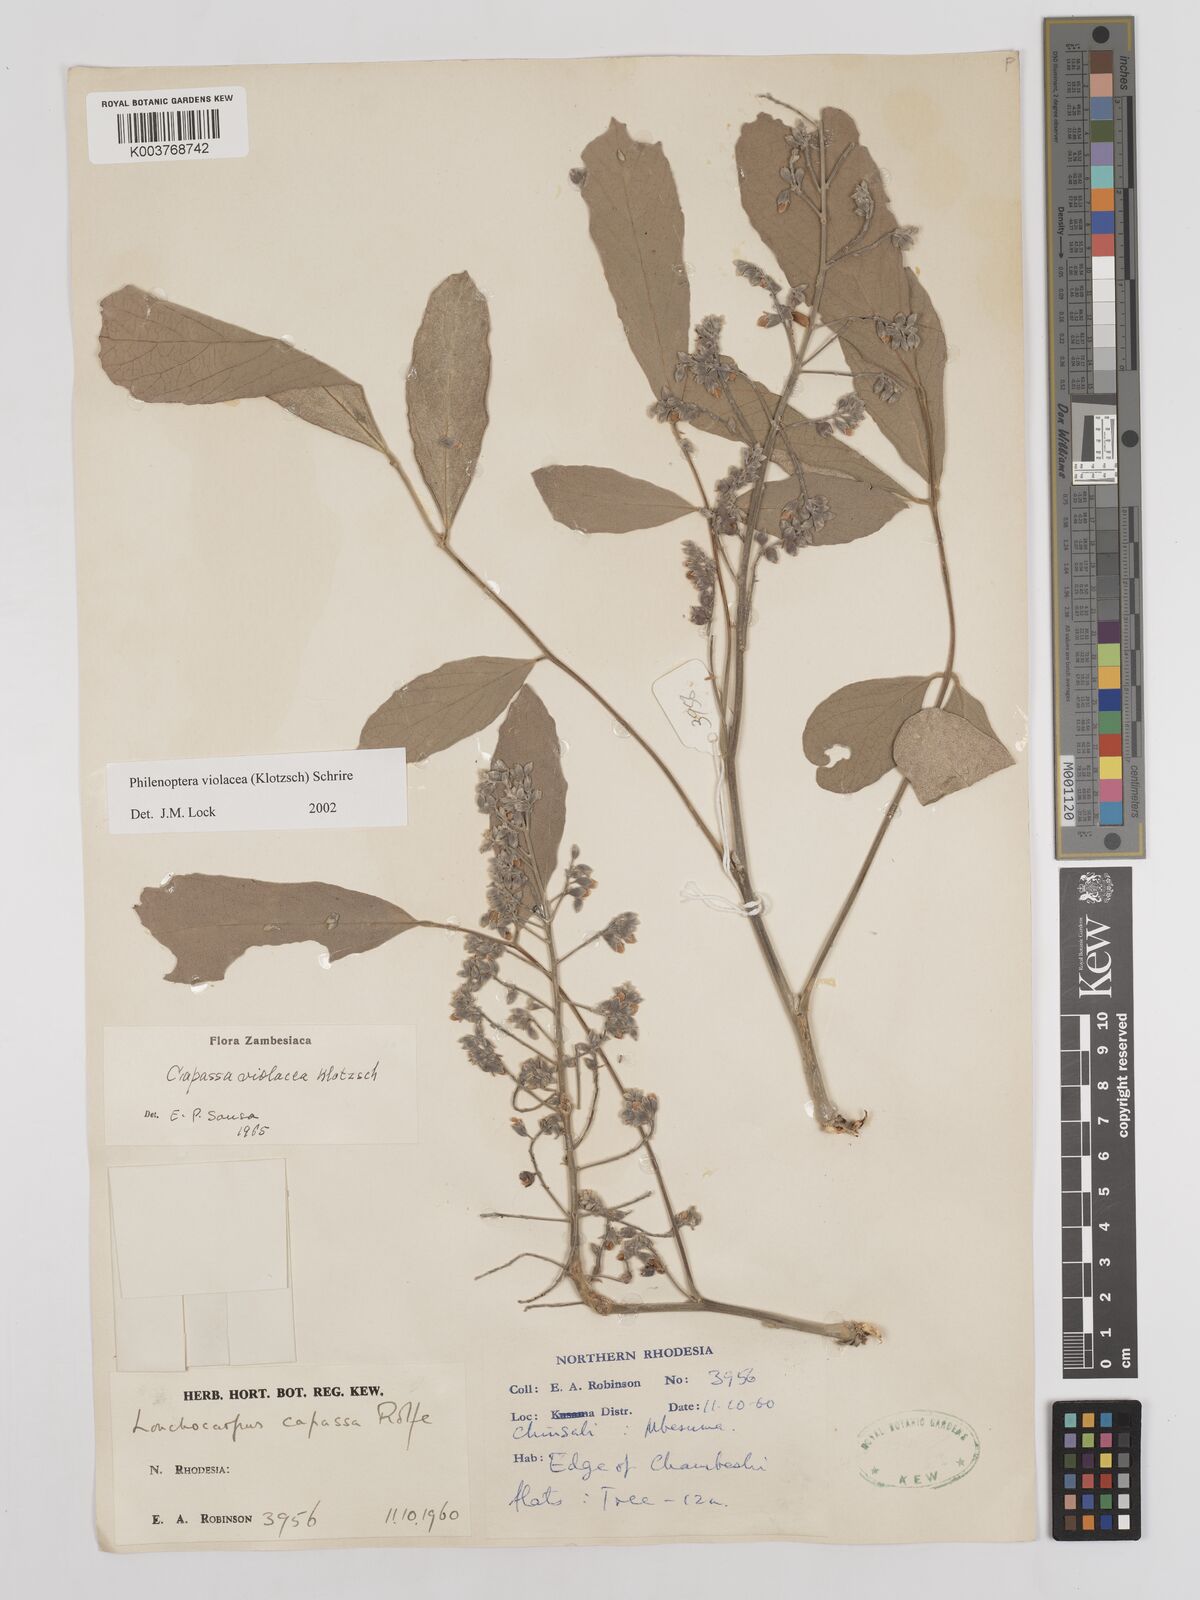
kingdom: Plantae
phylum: Tracheophyta
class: Magnoliopsida
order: Fabales
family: Fabaceae
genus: Philenoptera
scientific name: Philenoptera violacea
